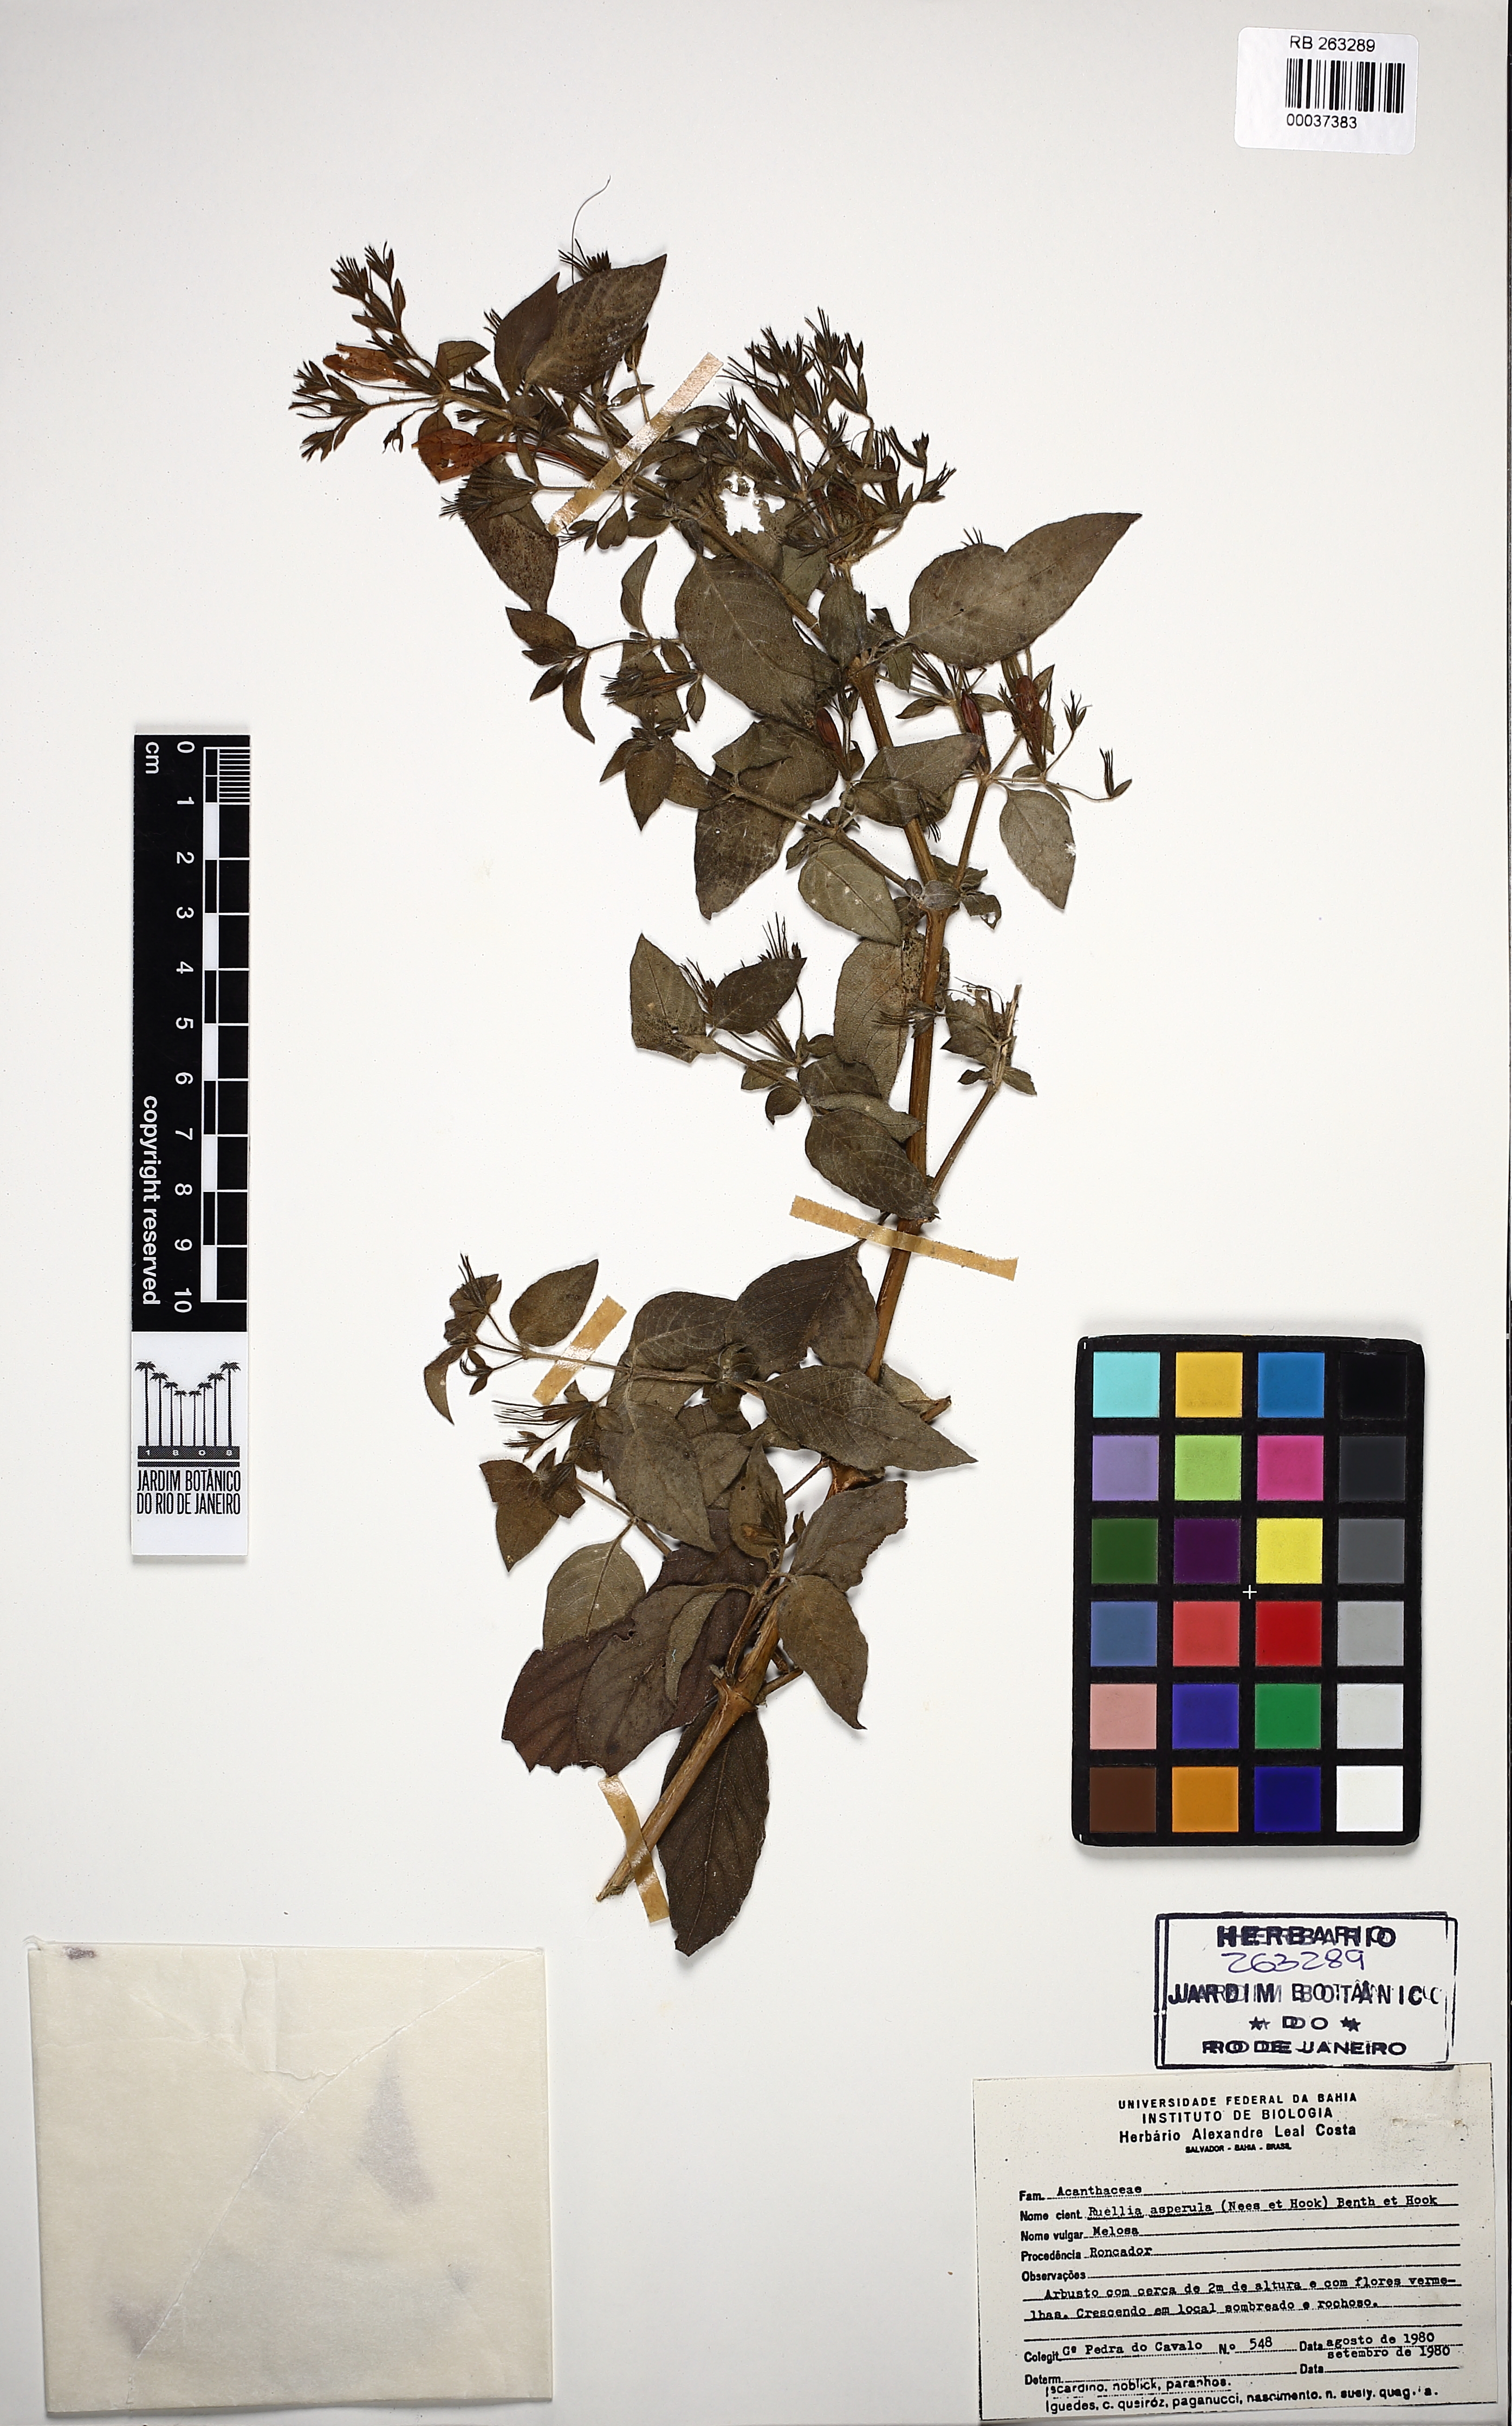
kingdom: Plantae
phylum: Tracheophyta
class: Magnoliopsida
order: Lamiales
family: Acanthaceae
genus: Ruellia
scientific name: Ruellia asperula
